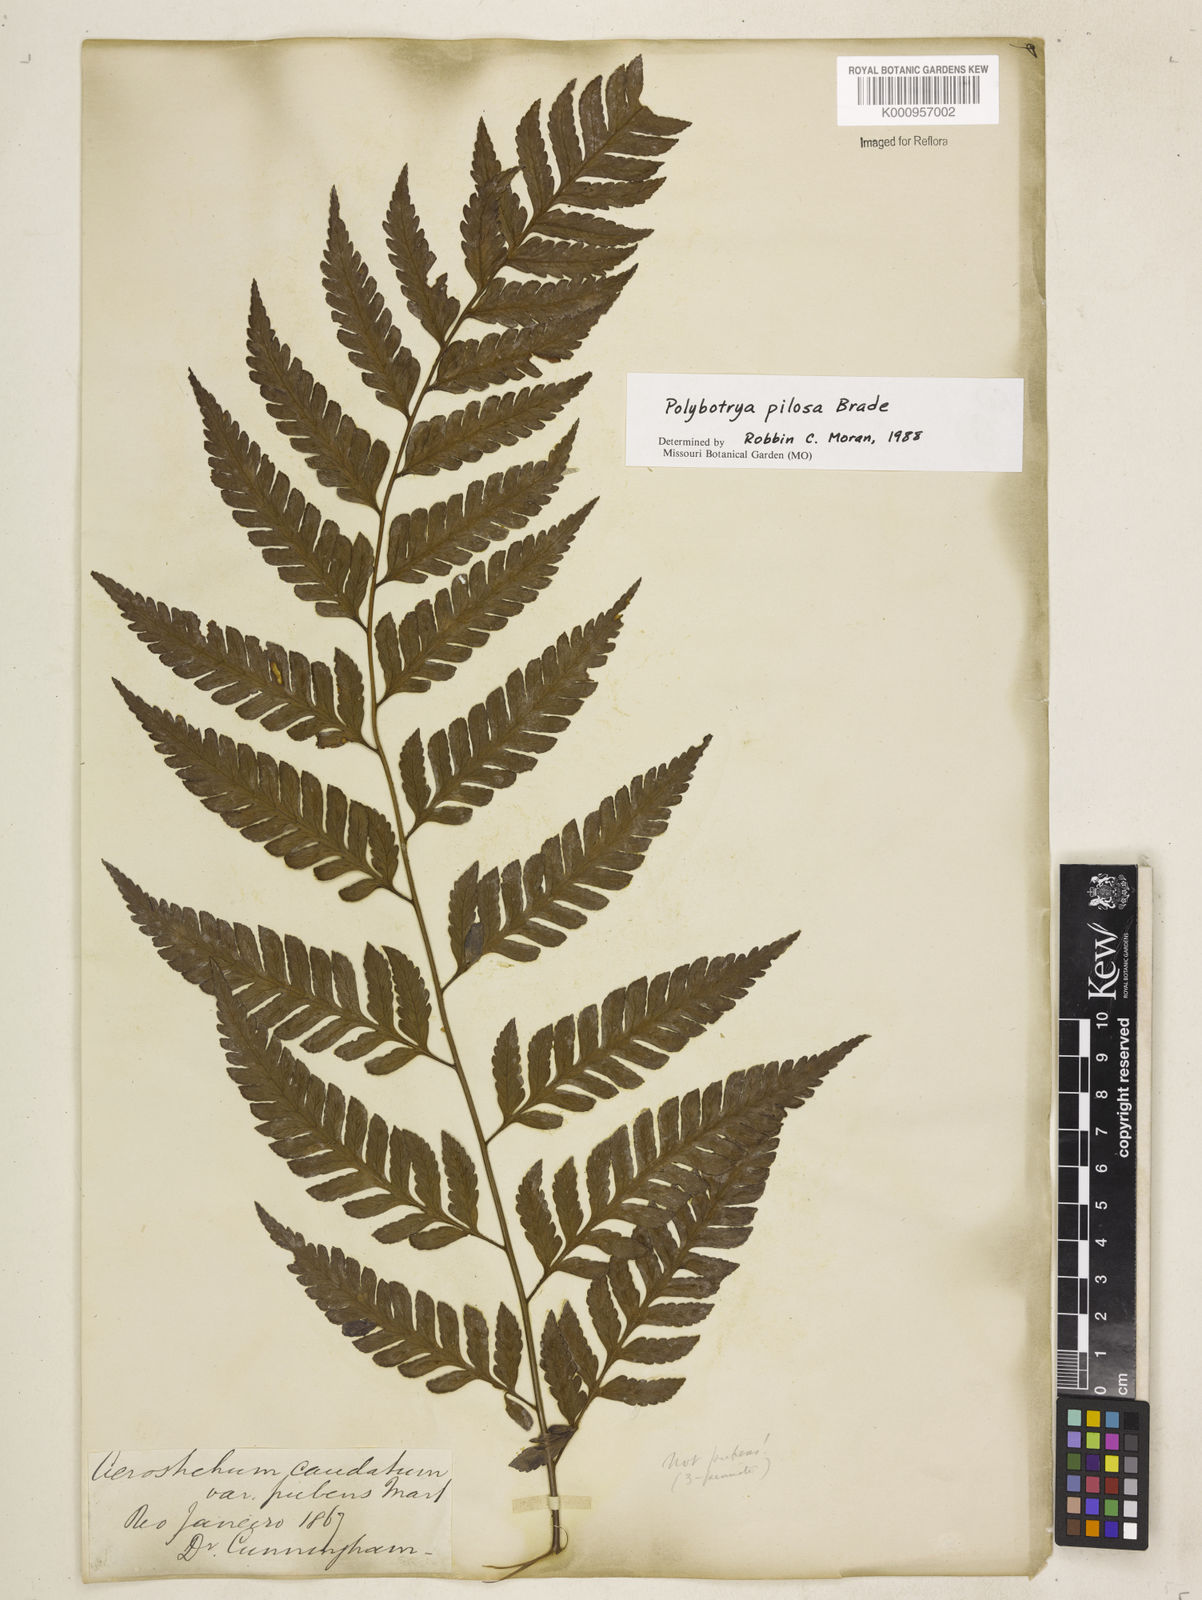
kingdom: Plantae
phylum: Tracheophyta
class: Polypodiopsida
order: Polypodiales
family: Dryopteridaceae
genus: Polybotrya
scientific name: Polybotrya pilosa
